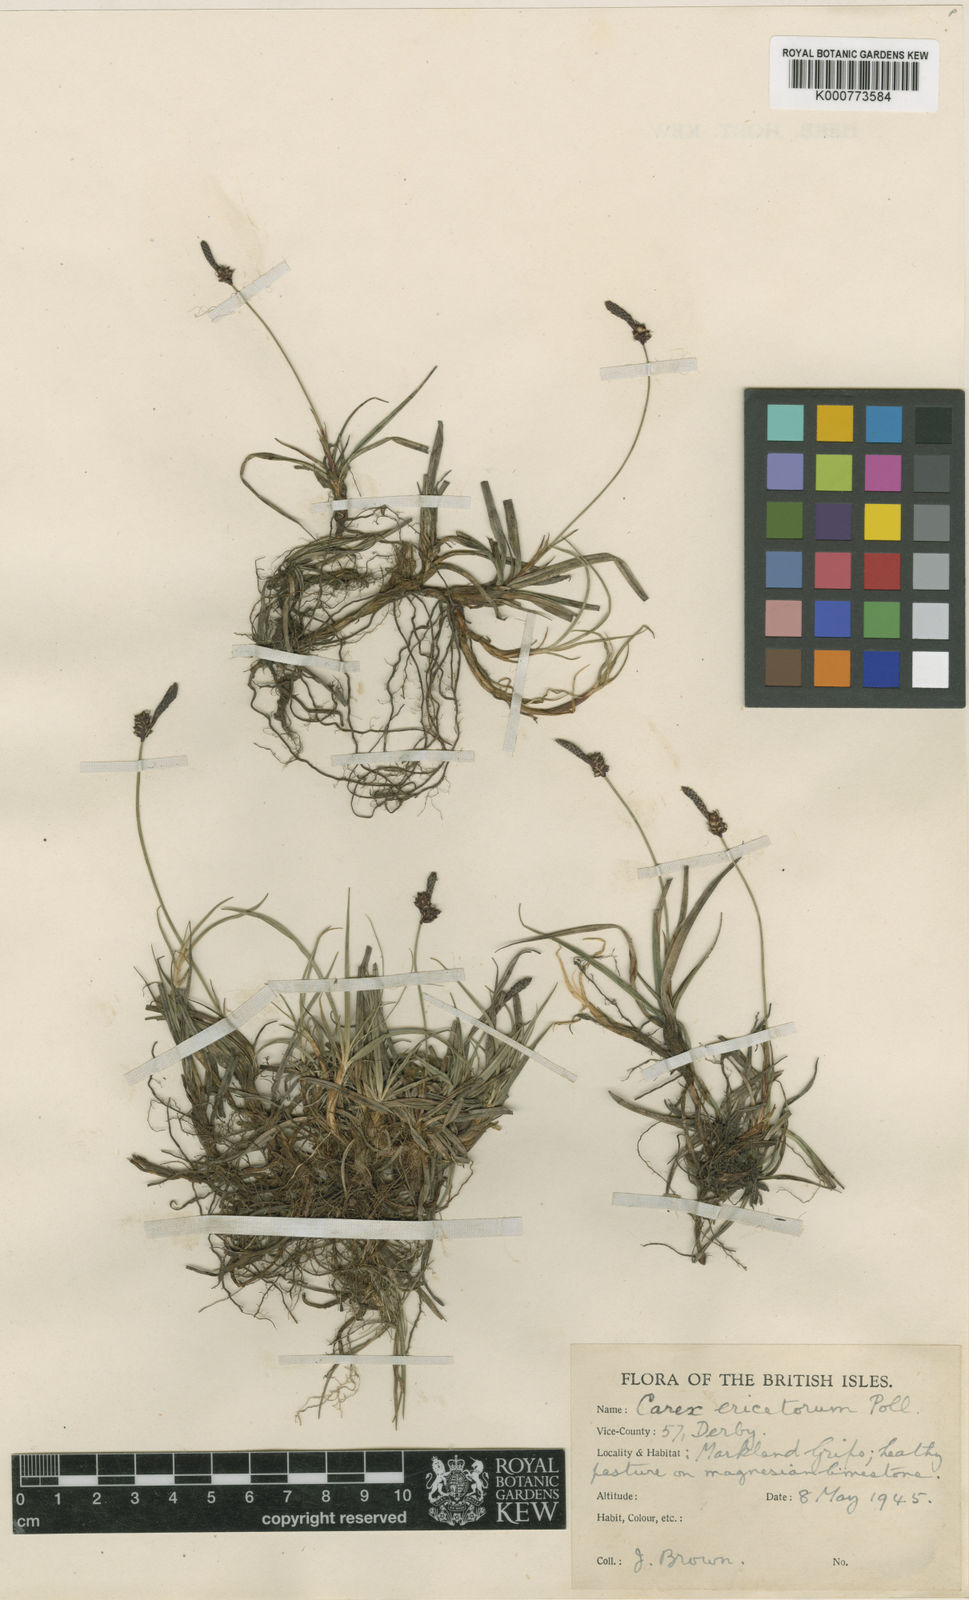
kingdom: Plantae
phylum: Tracheophyta
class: Liliopsida
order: Poales
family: Cyperaceae
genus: Carex
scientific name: Carex ericetorum
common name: Rare spring-sedge
